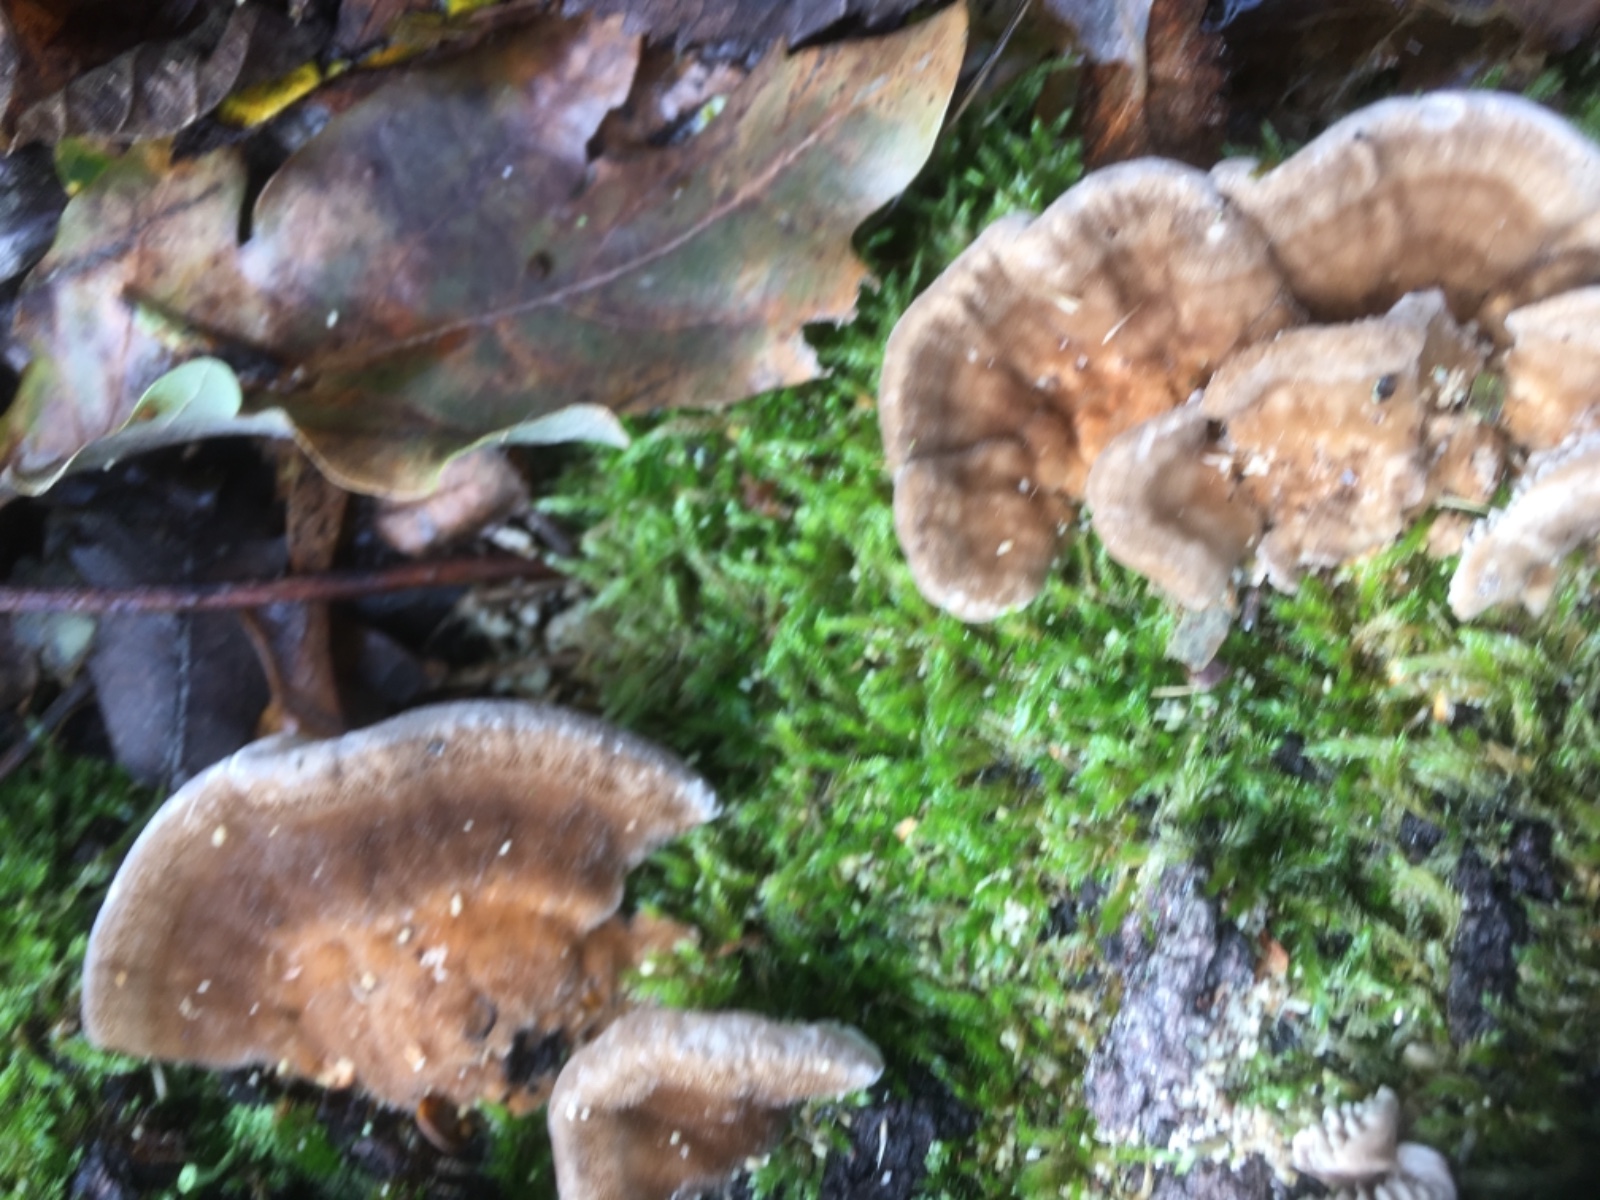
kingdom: Fungi
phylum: Basidiomycota
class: Agaricomycetes
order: Polyporales
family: Polyporaceae
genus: Lenzites
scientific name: Lenzites betulinus
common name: birke-læderporesvamp
